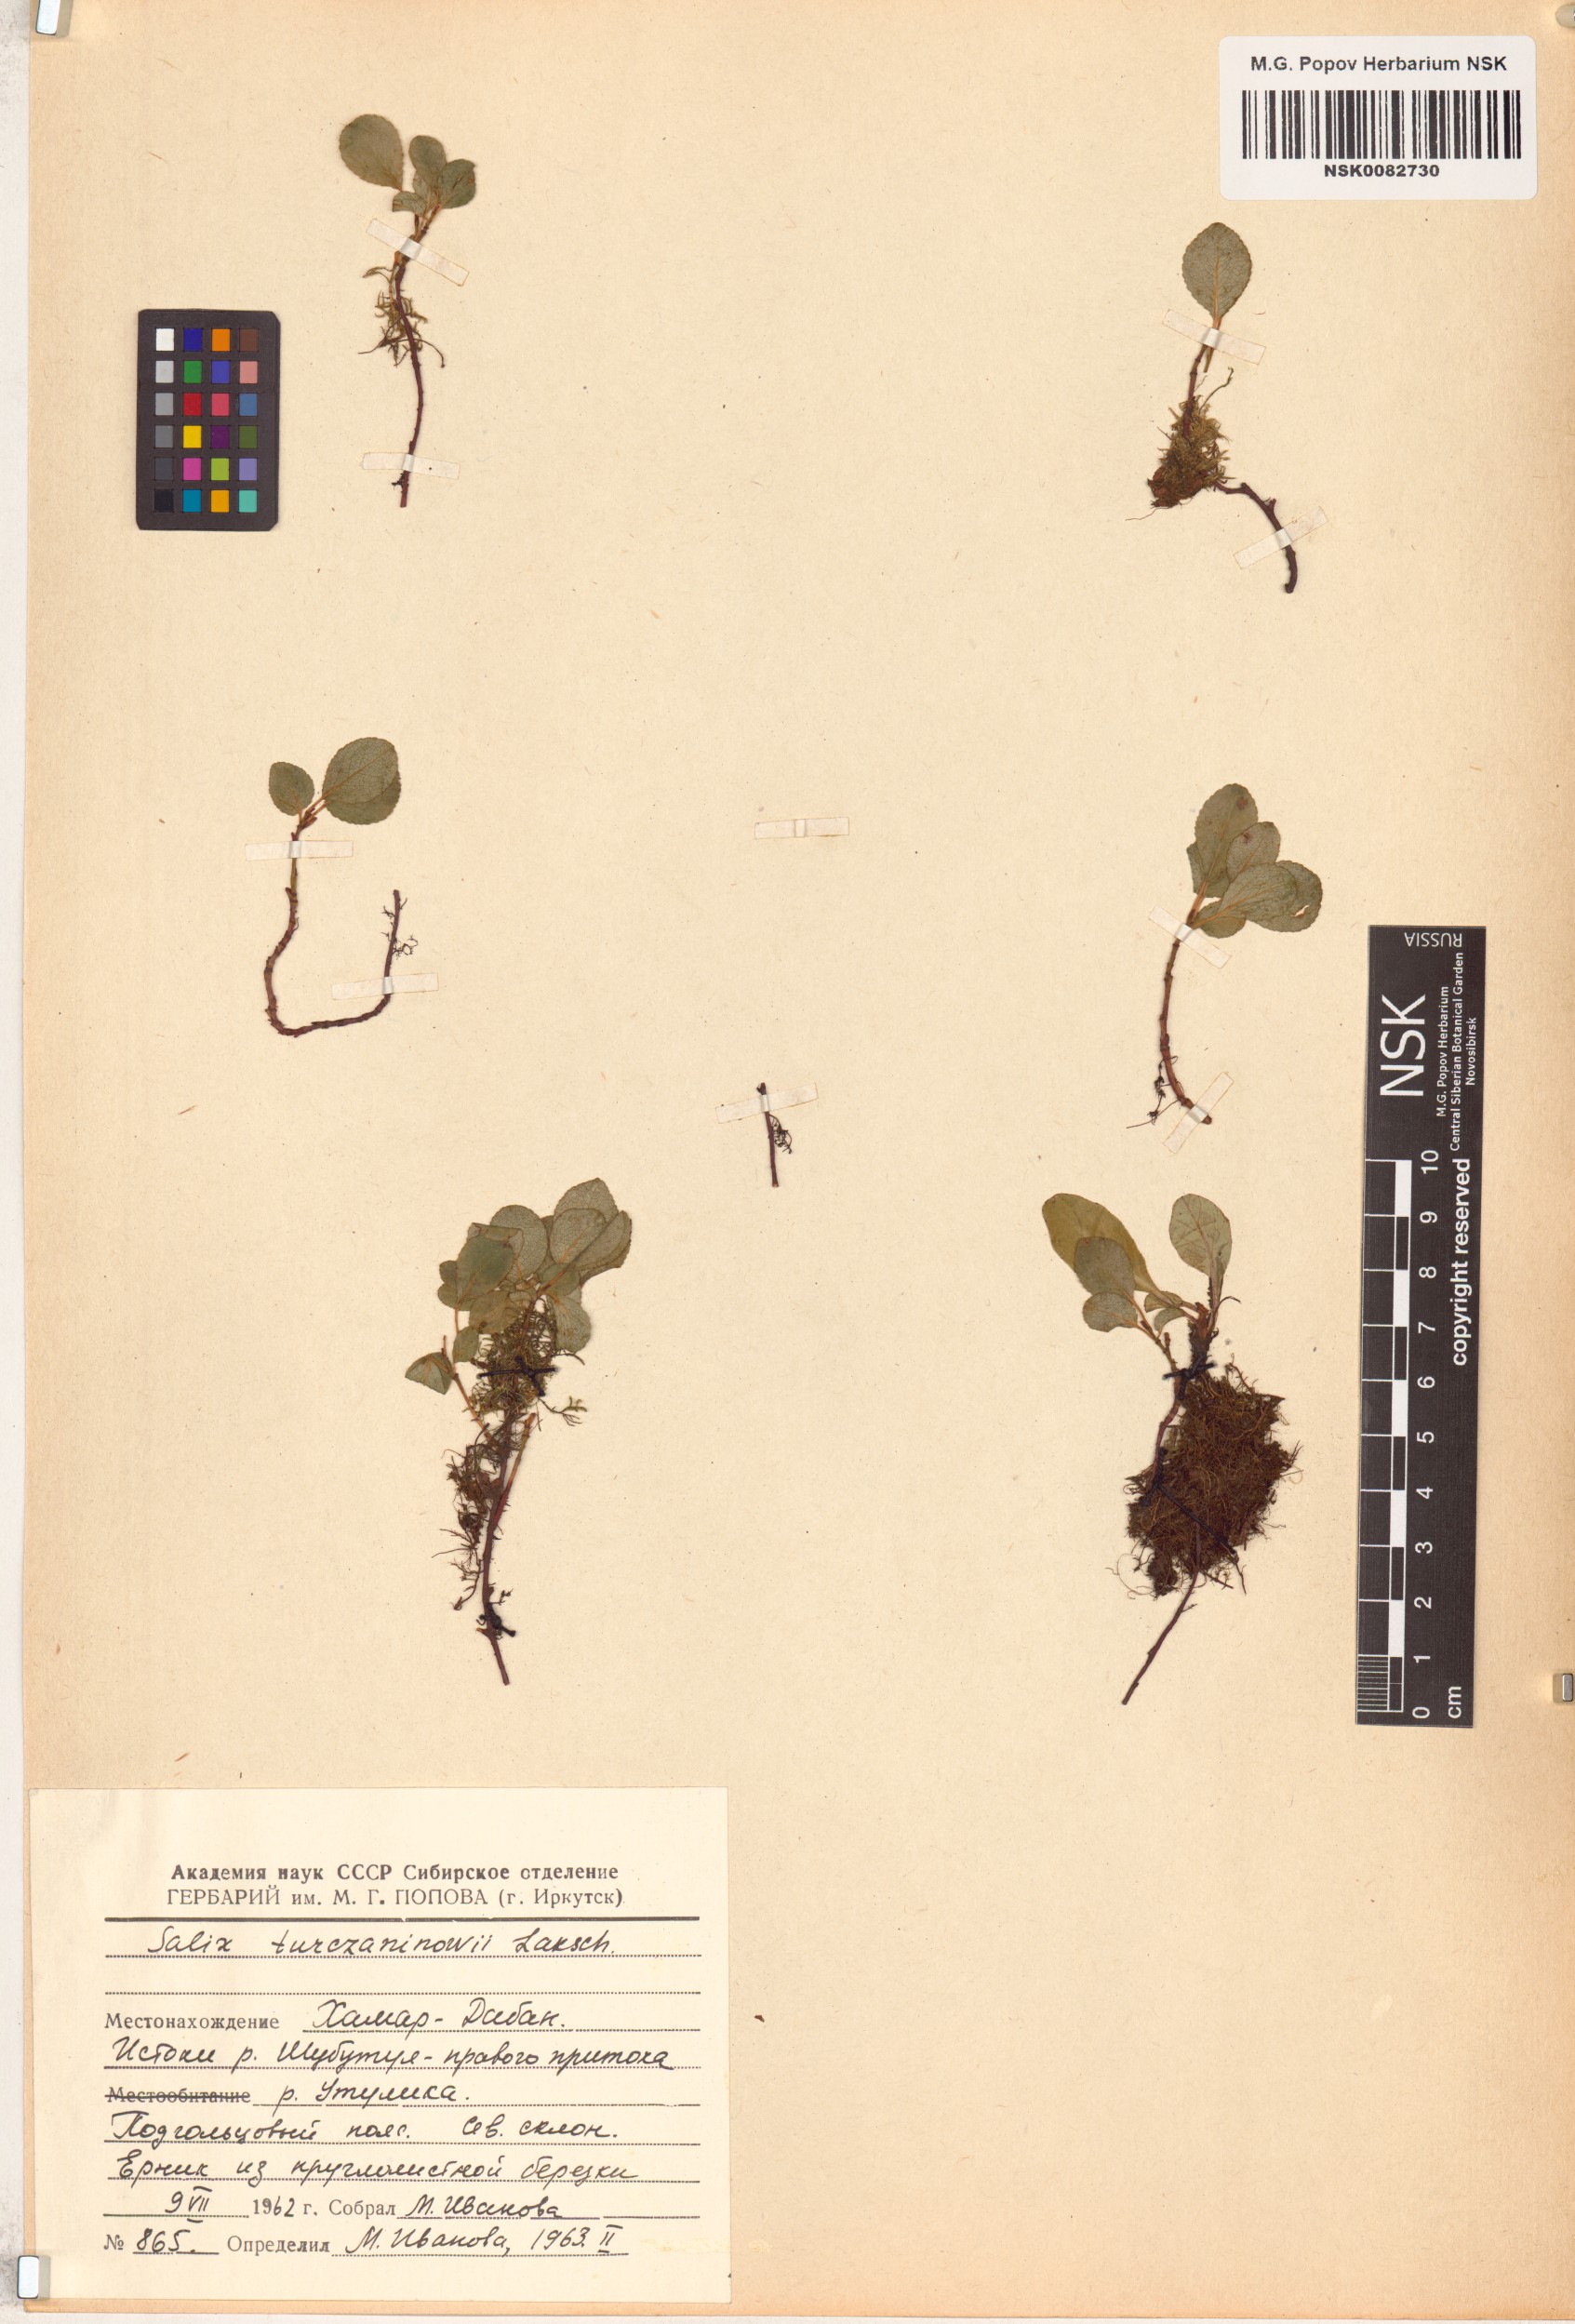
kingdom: Plantae
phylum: Tracheophyta
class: Magnoliopsida
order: Malpighiales
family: Salicaceae
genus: Salix
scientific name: Salix turczaninowii
